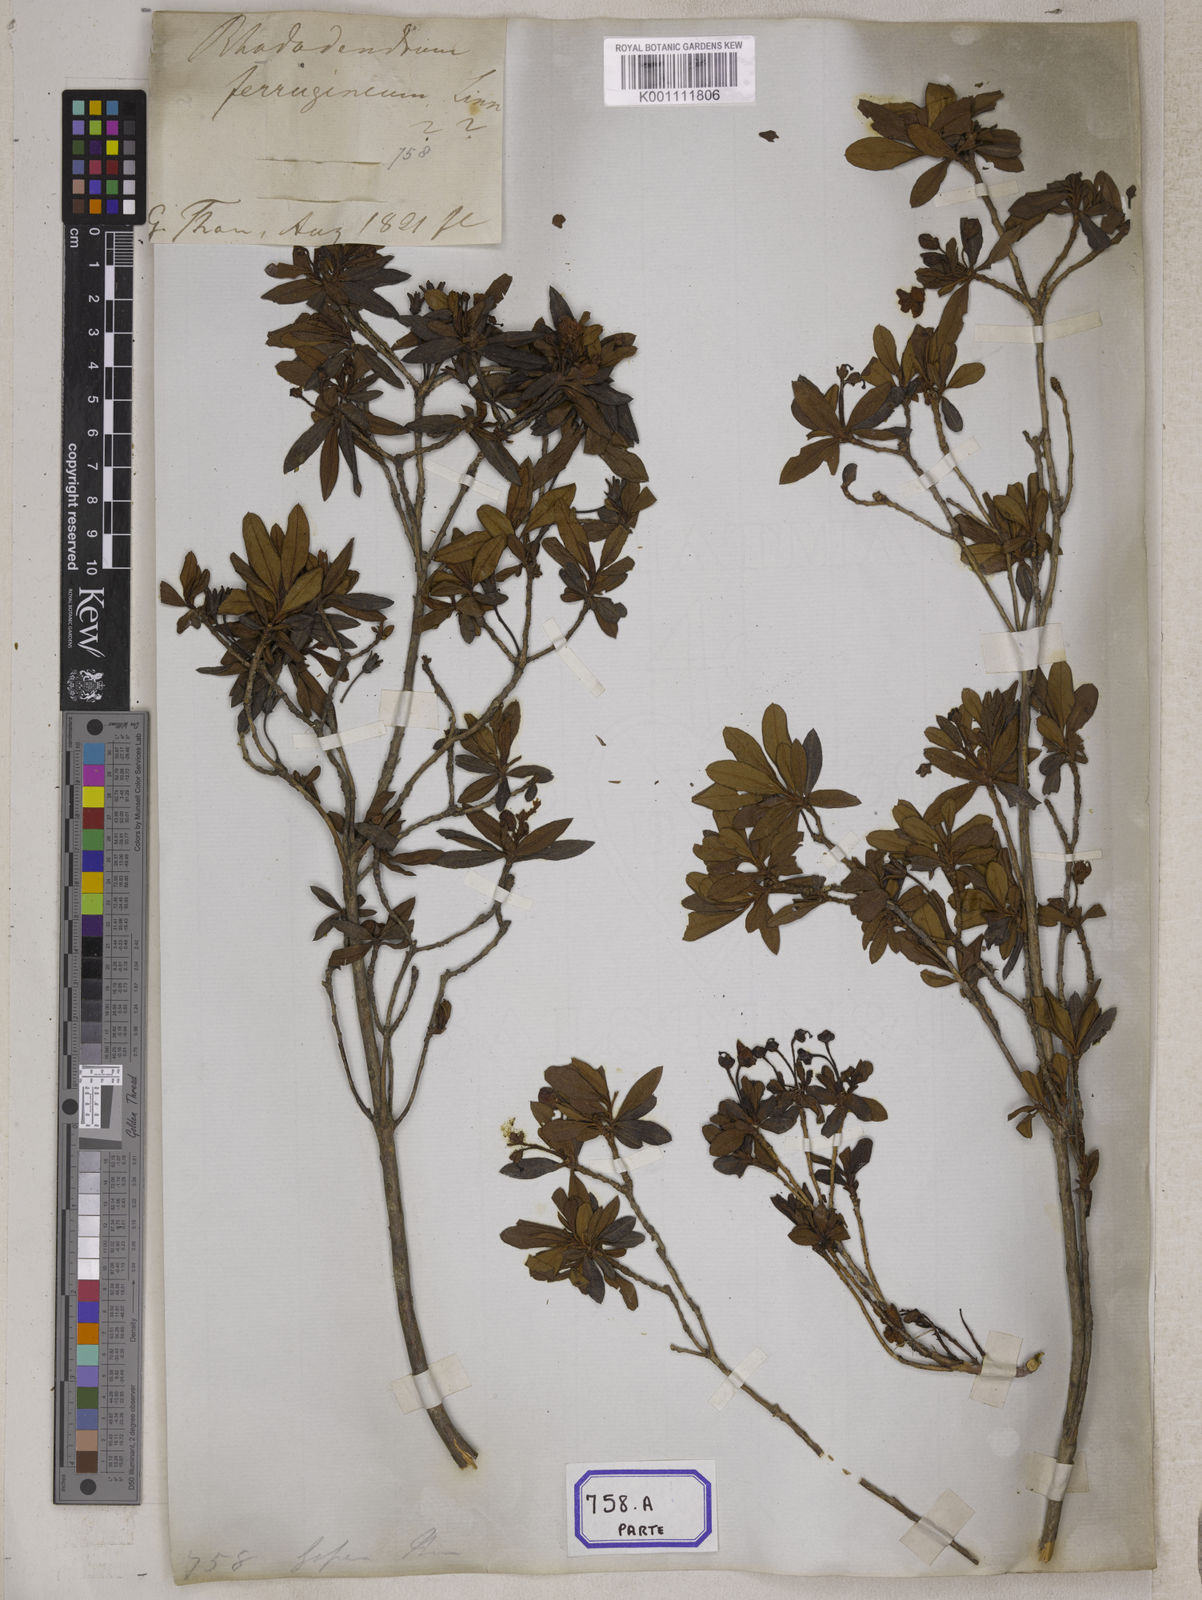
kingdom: Plantae
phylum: Tracheophyta
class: Magnoliopsida
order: Ericales
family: Ericaceae
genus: Rhododendron
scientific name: Rhododendron
